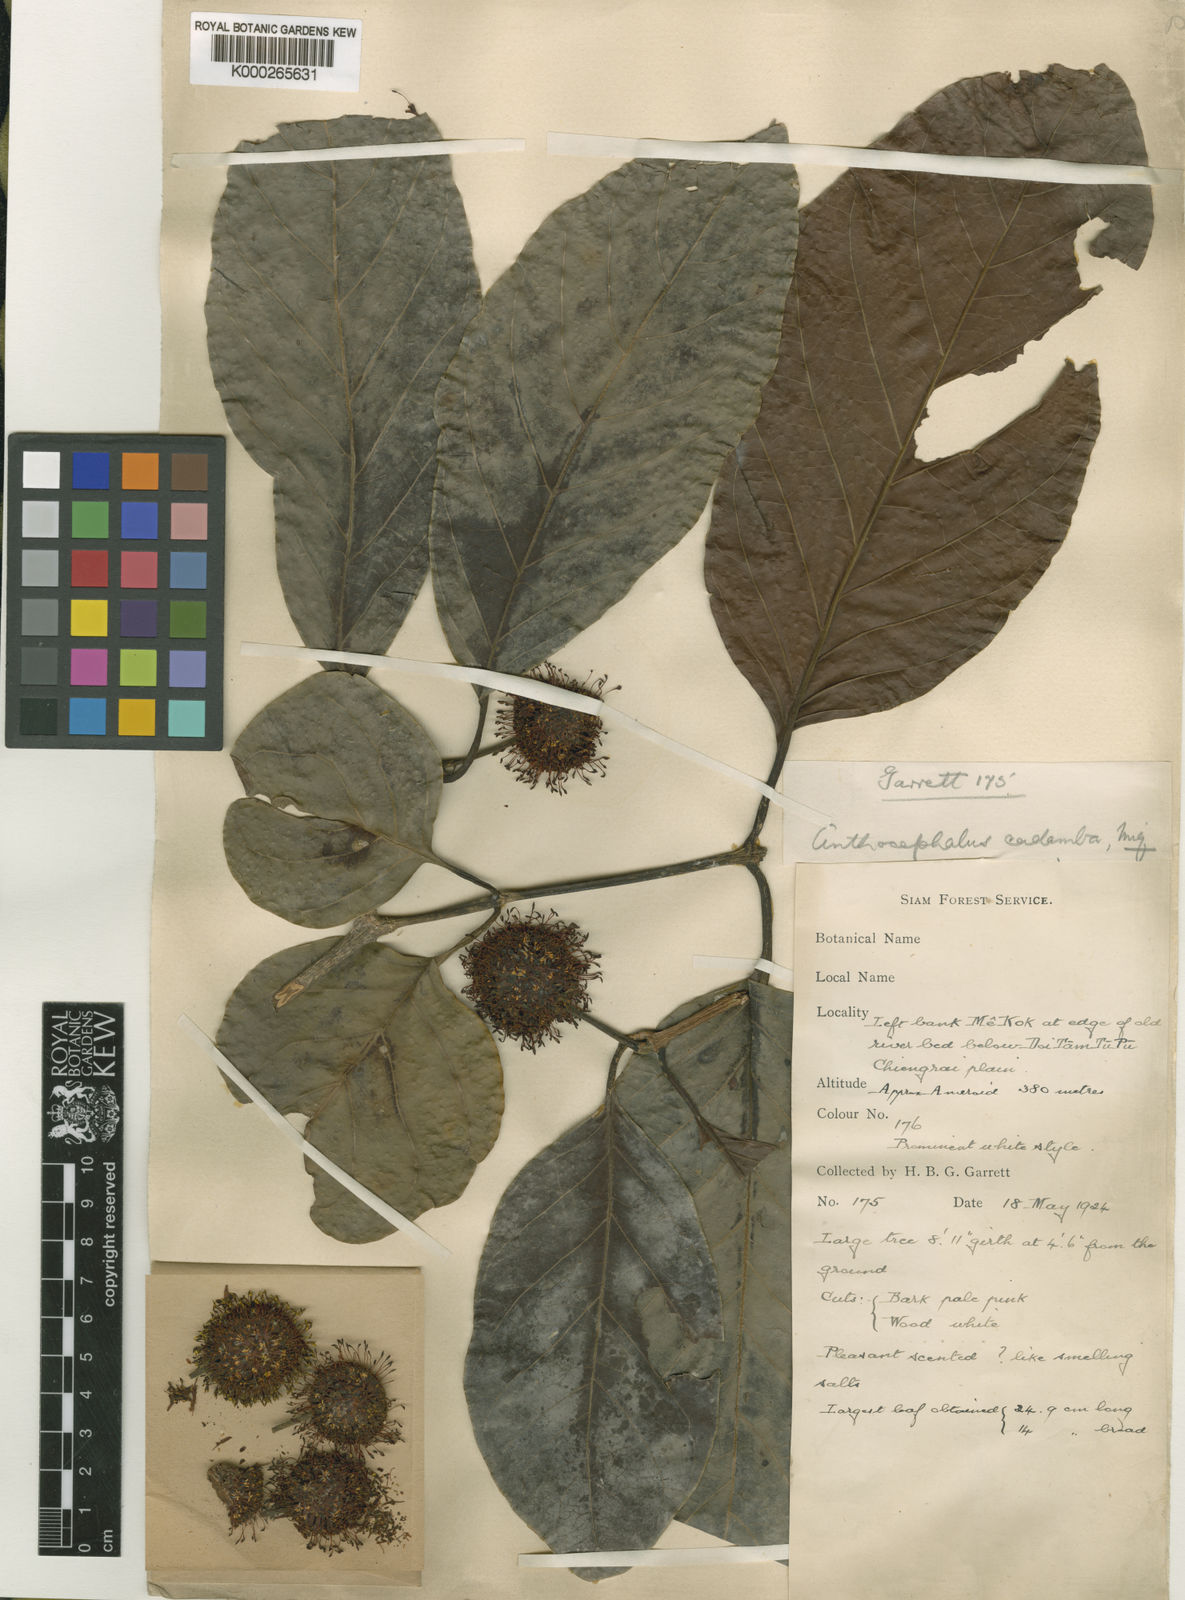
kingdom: Plantae
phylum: Tracheophyta
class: Magnoliopsida
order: Gentianales
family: Rubiaceae
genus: Neolamarckia
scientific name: Neolamarckia cadamba
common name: Leichhardt-pine
